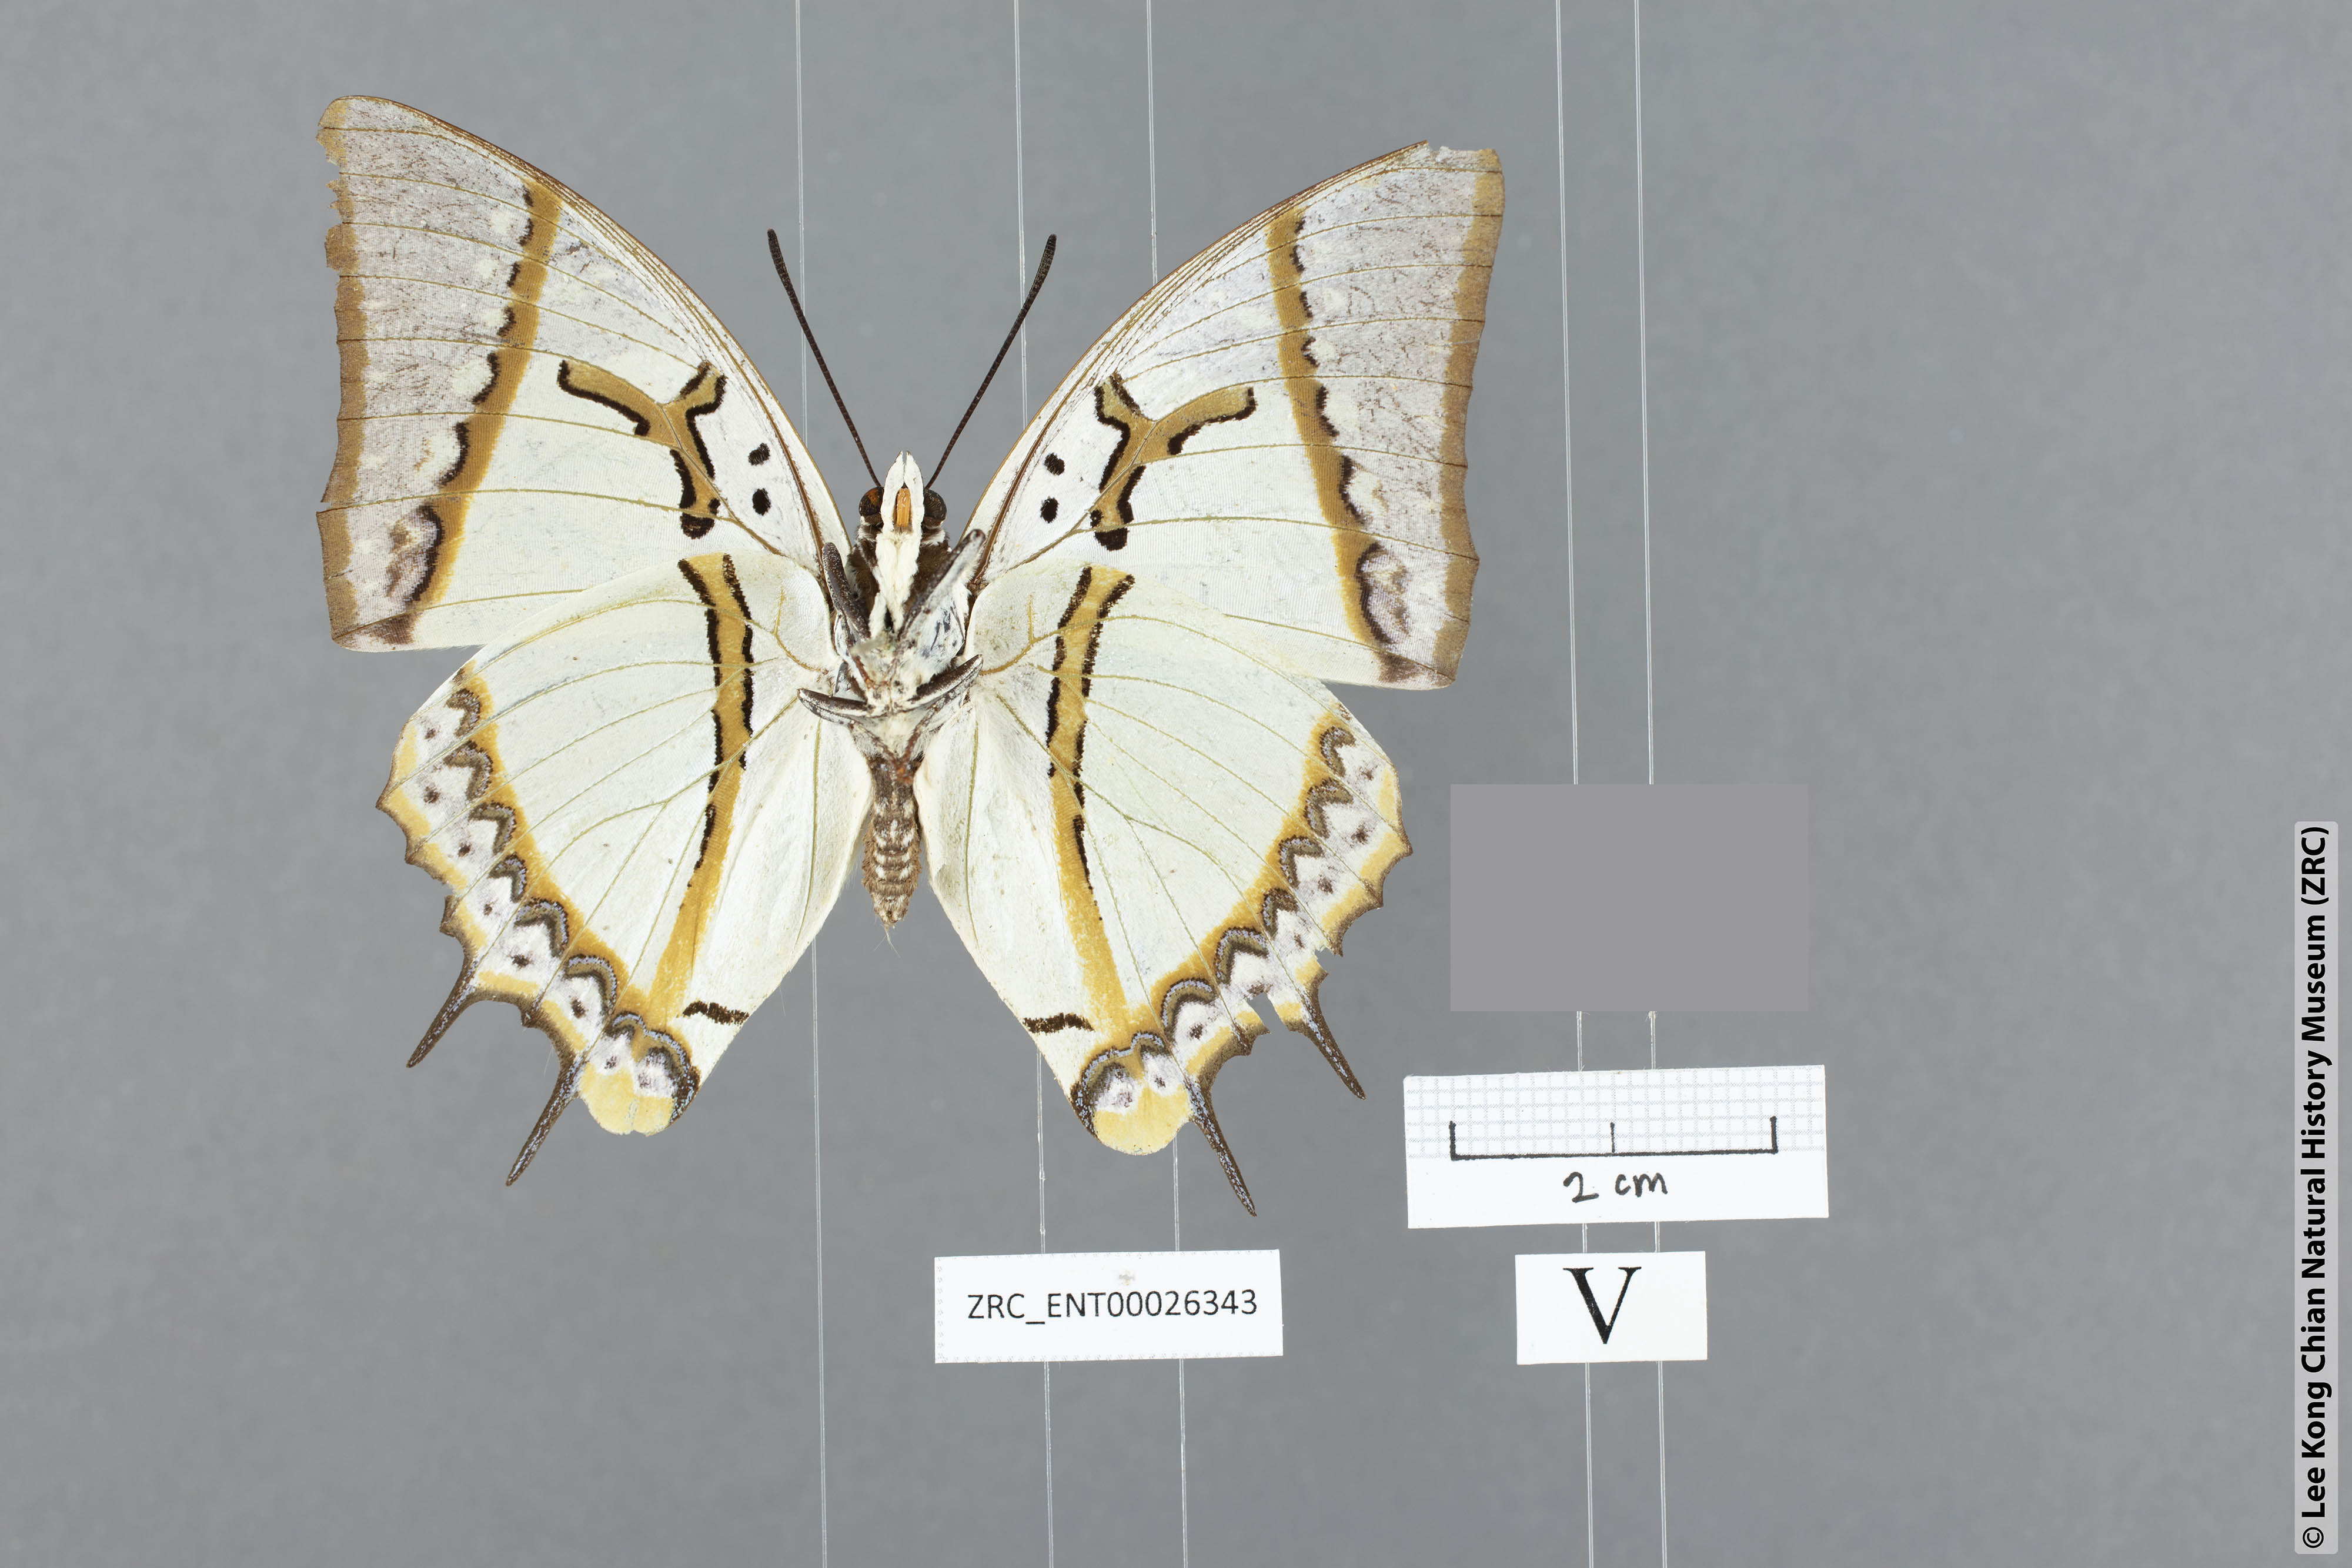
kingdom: Animalia
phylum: Arthropoda
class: Insecta
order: Lepidoptera
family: Nymphalidae
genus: Polyura
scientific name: Polyura eudamippus
